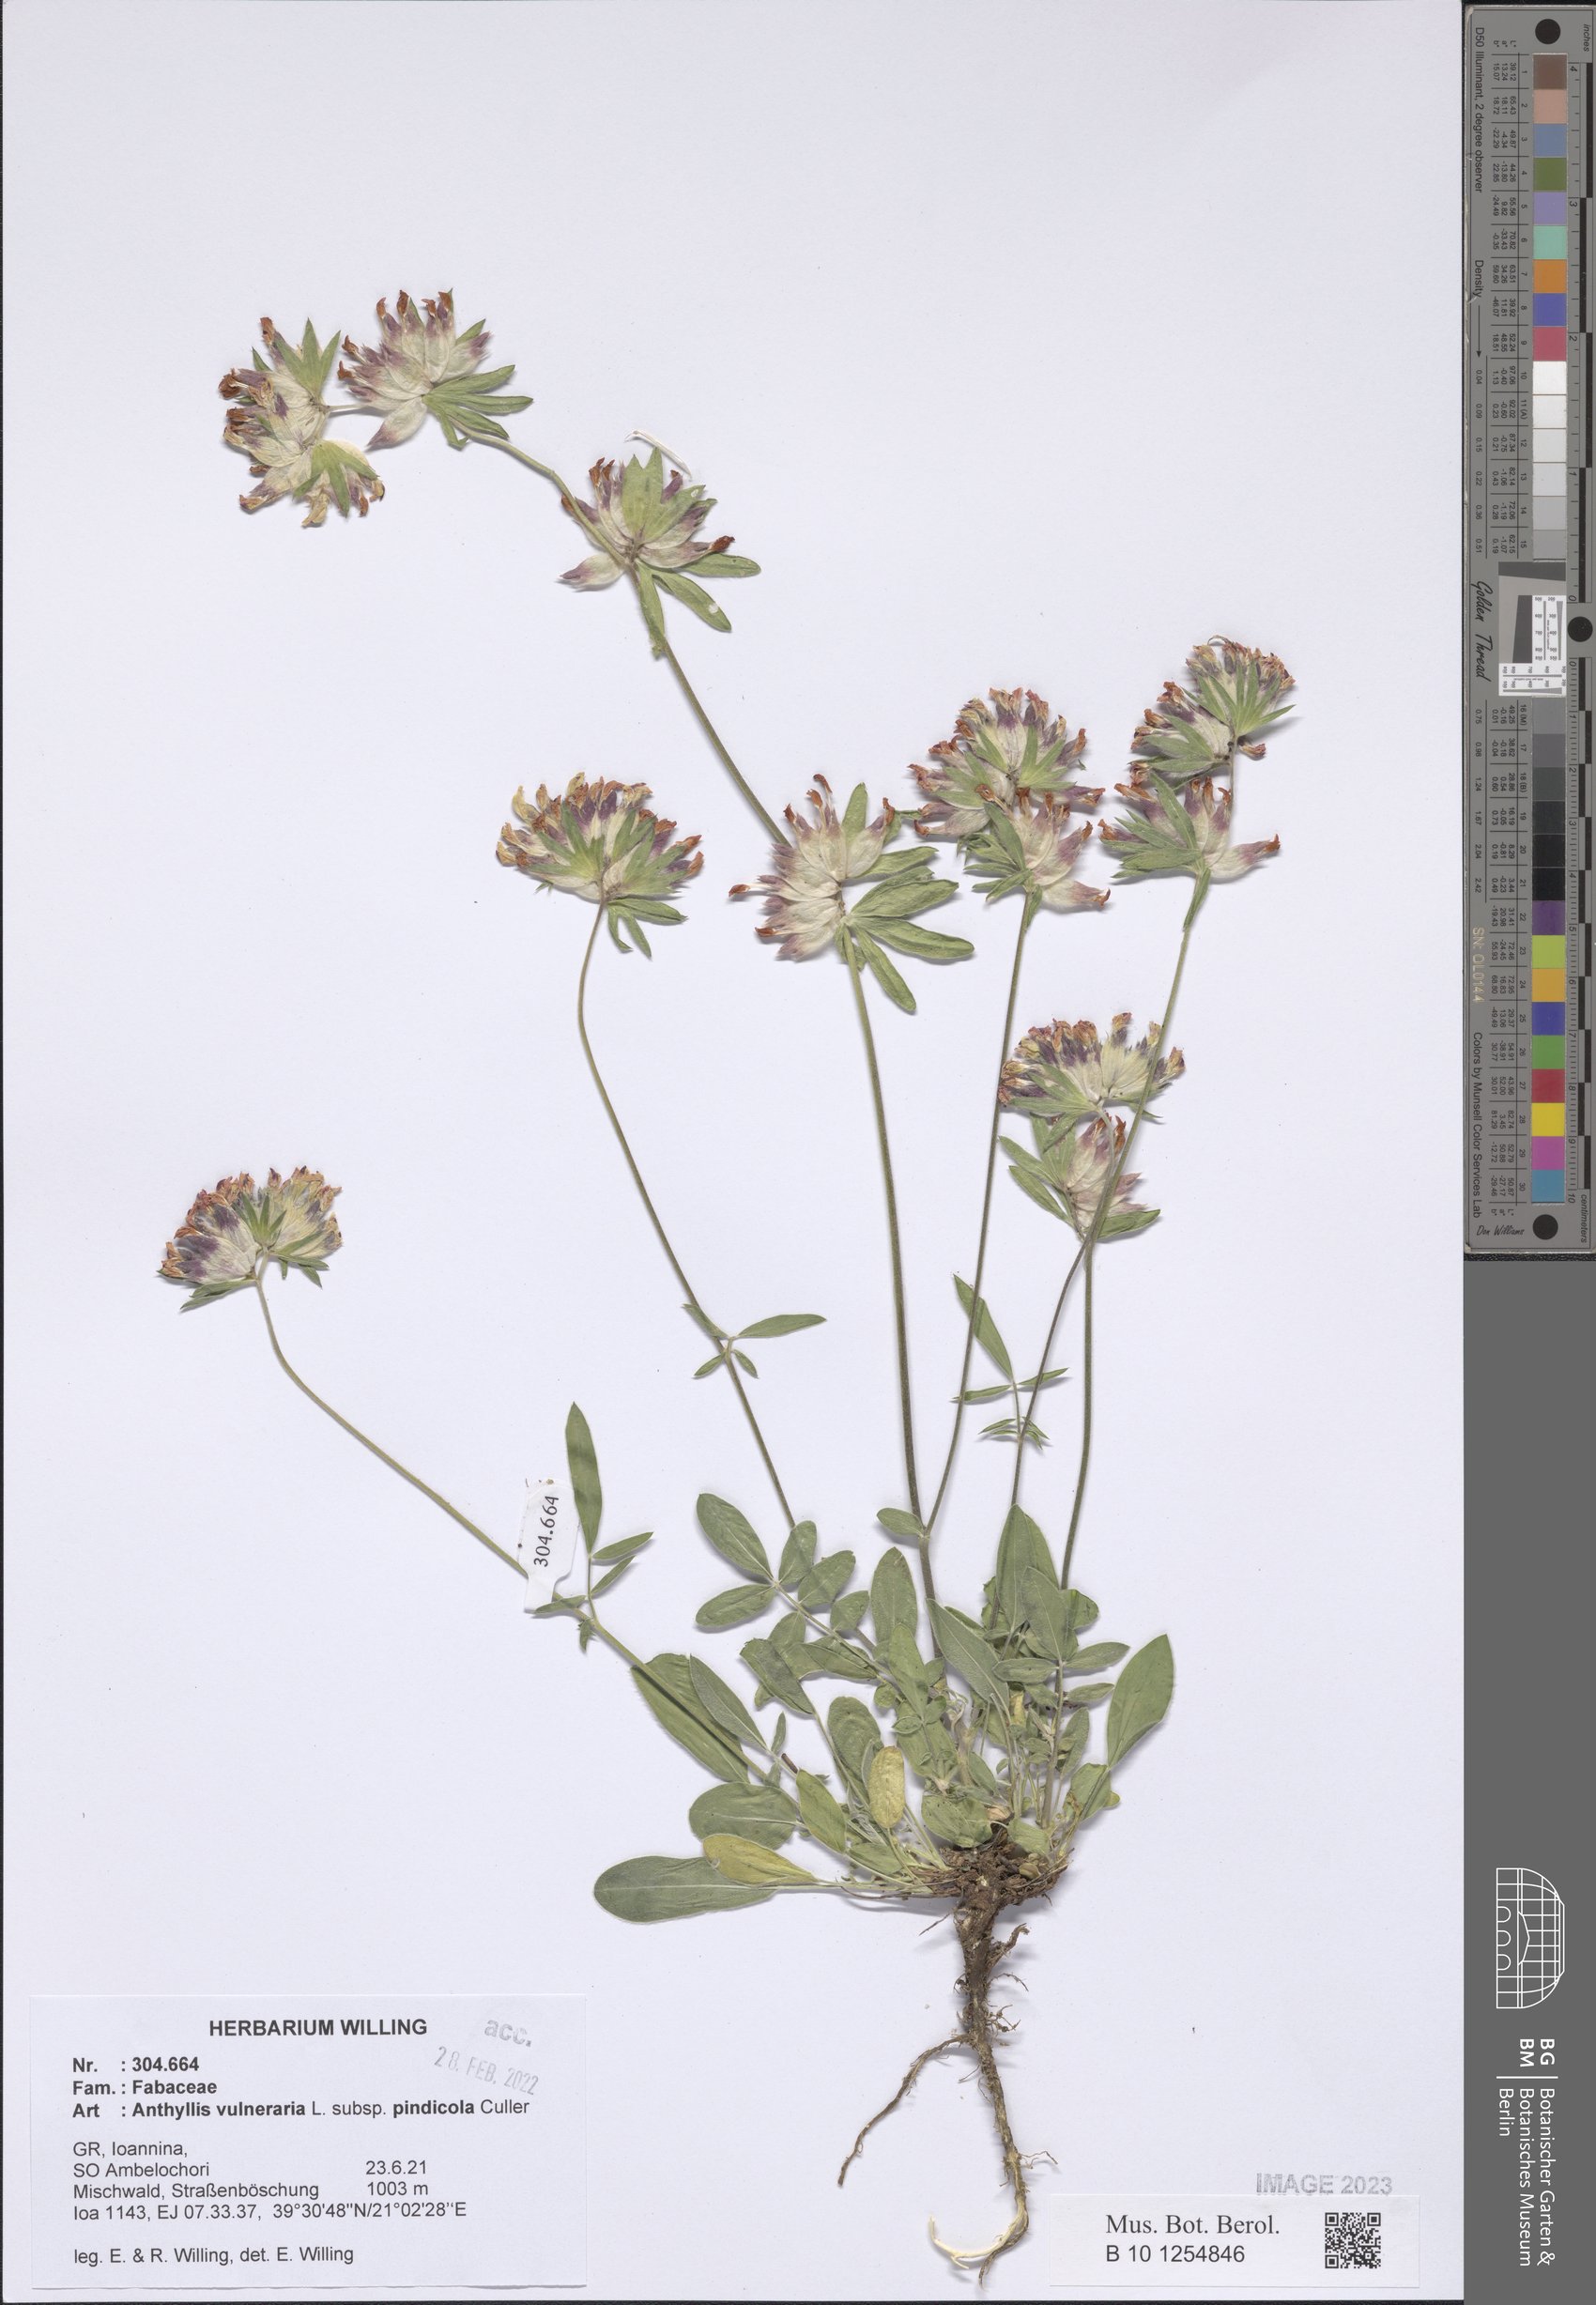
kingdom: Plantae
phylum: Tracheophyta
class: Magnoliopsida
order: Fabales
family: Fabaceae
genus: Anthyllis
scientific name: Anthyllis vulneraria
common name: Kidney vetch
